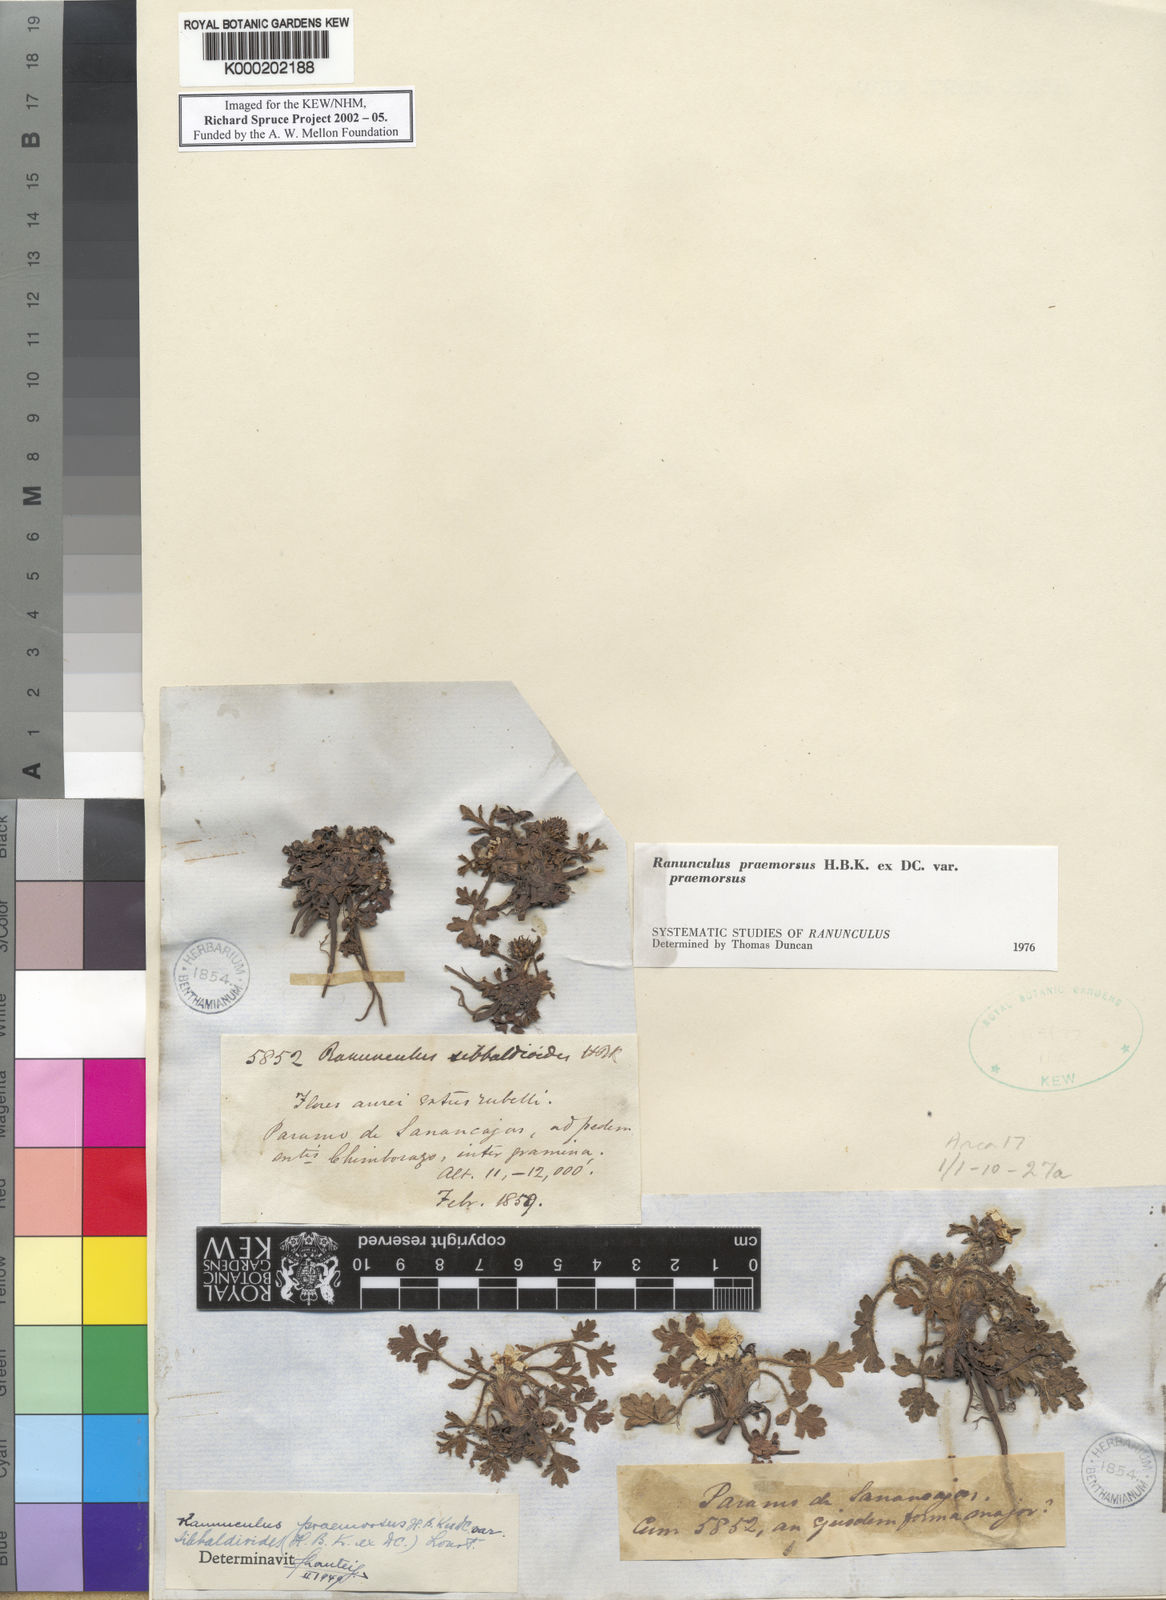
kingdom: Plantae
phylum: Tracheophyta
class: Magnoliopsida
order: Ranunculales
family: Ranunculaceae
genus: Ranunculus
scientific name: Ranunculus praemorsus
